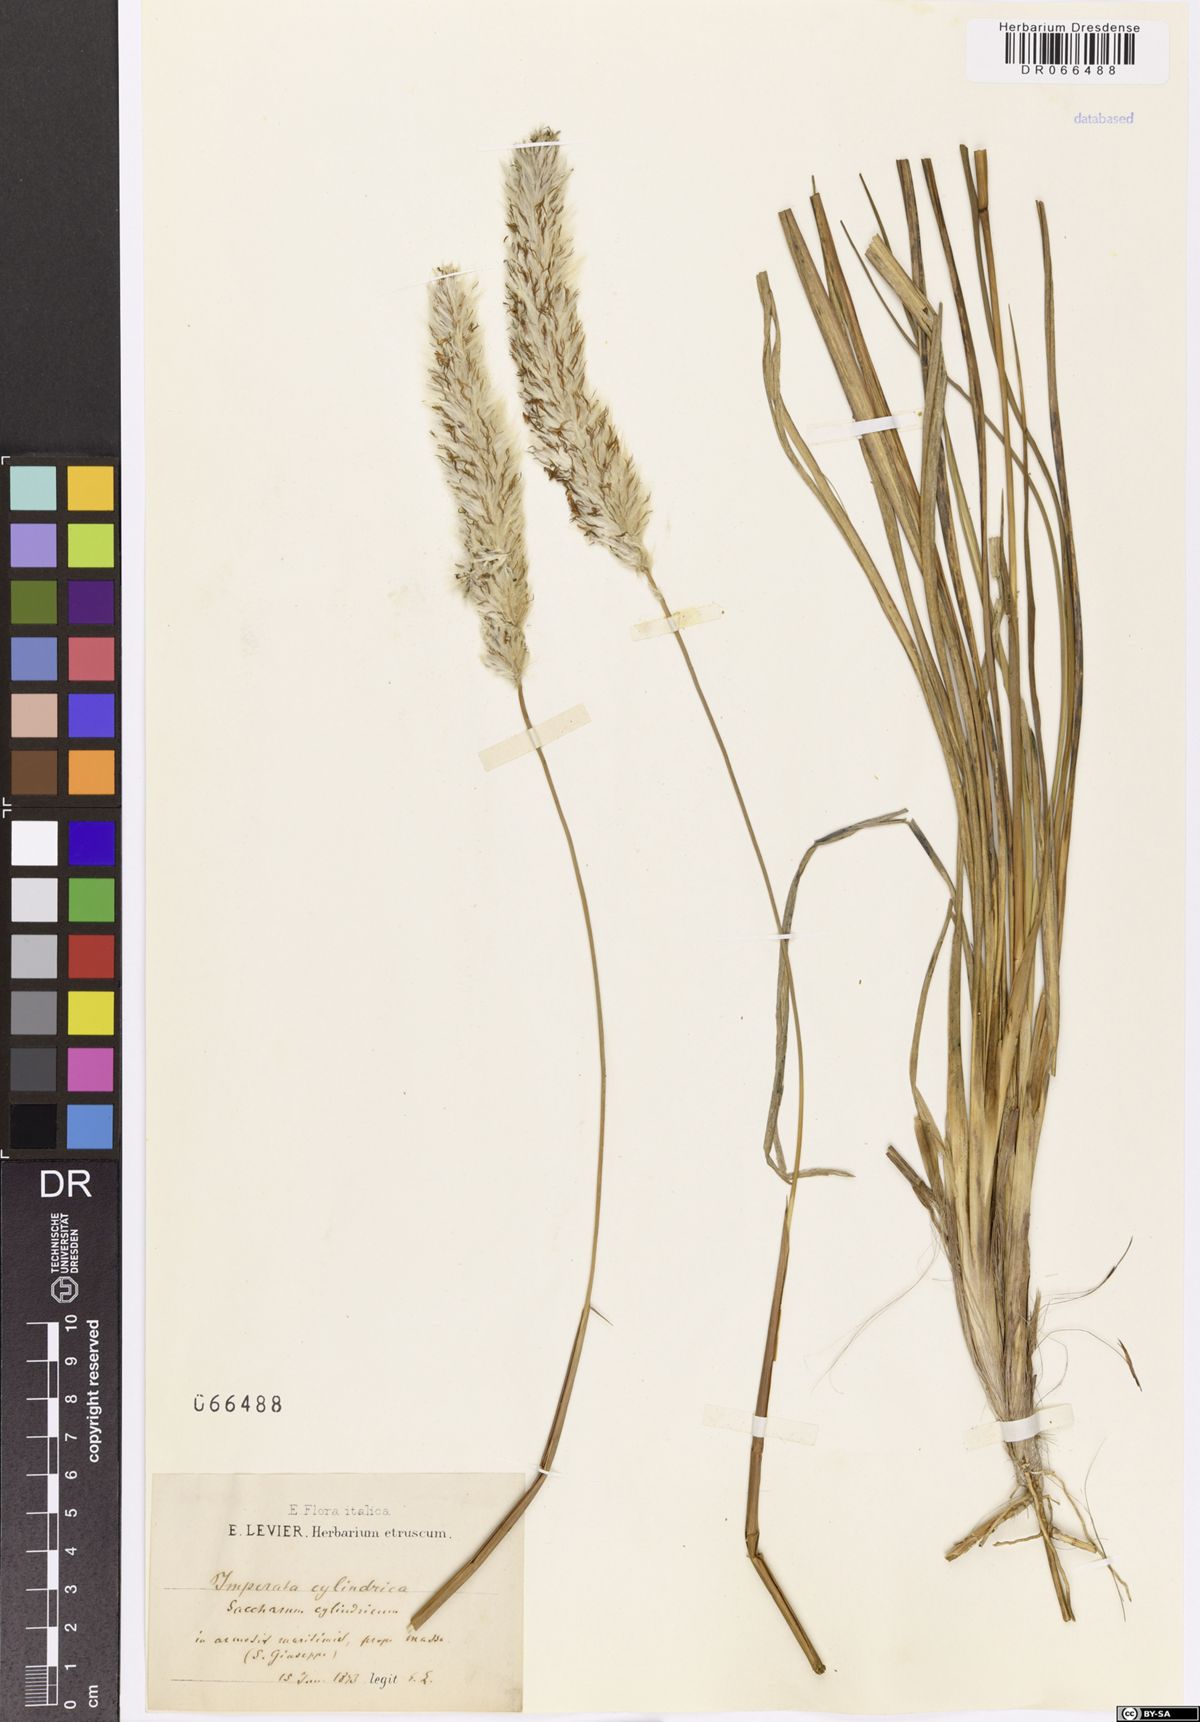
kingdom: Plantae
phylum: Tracheophyta
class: Liliopsida
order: Poales
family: Poaceae
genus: Imperata
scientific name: Imperata cylindrica
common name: Cogongrass
